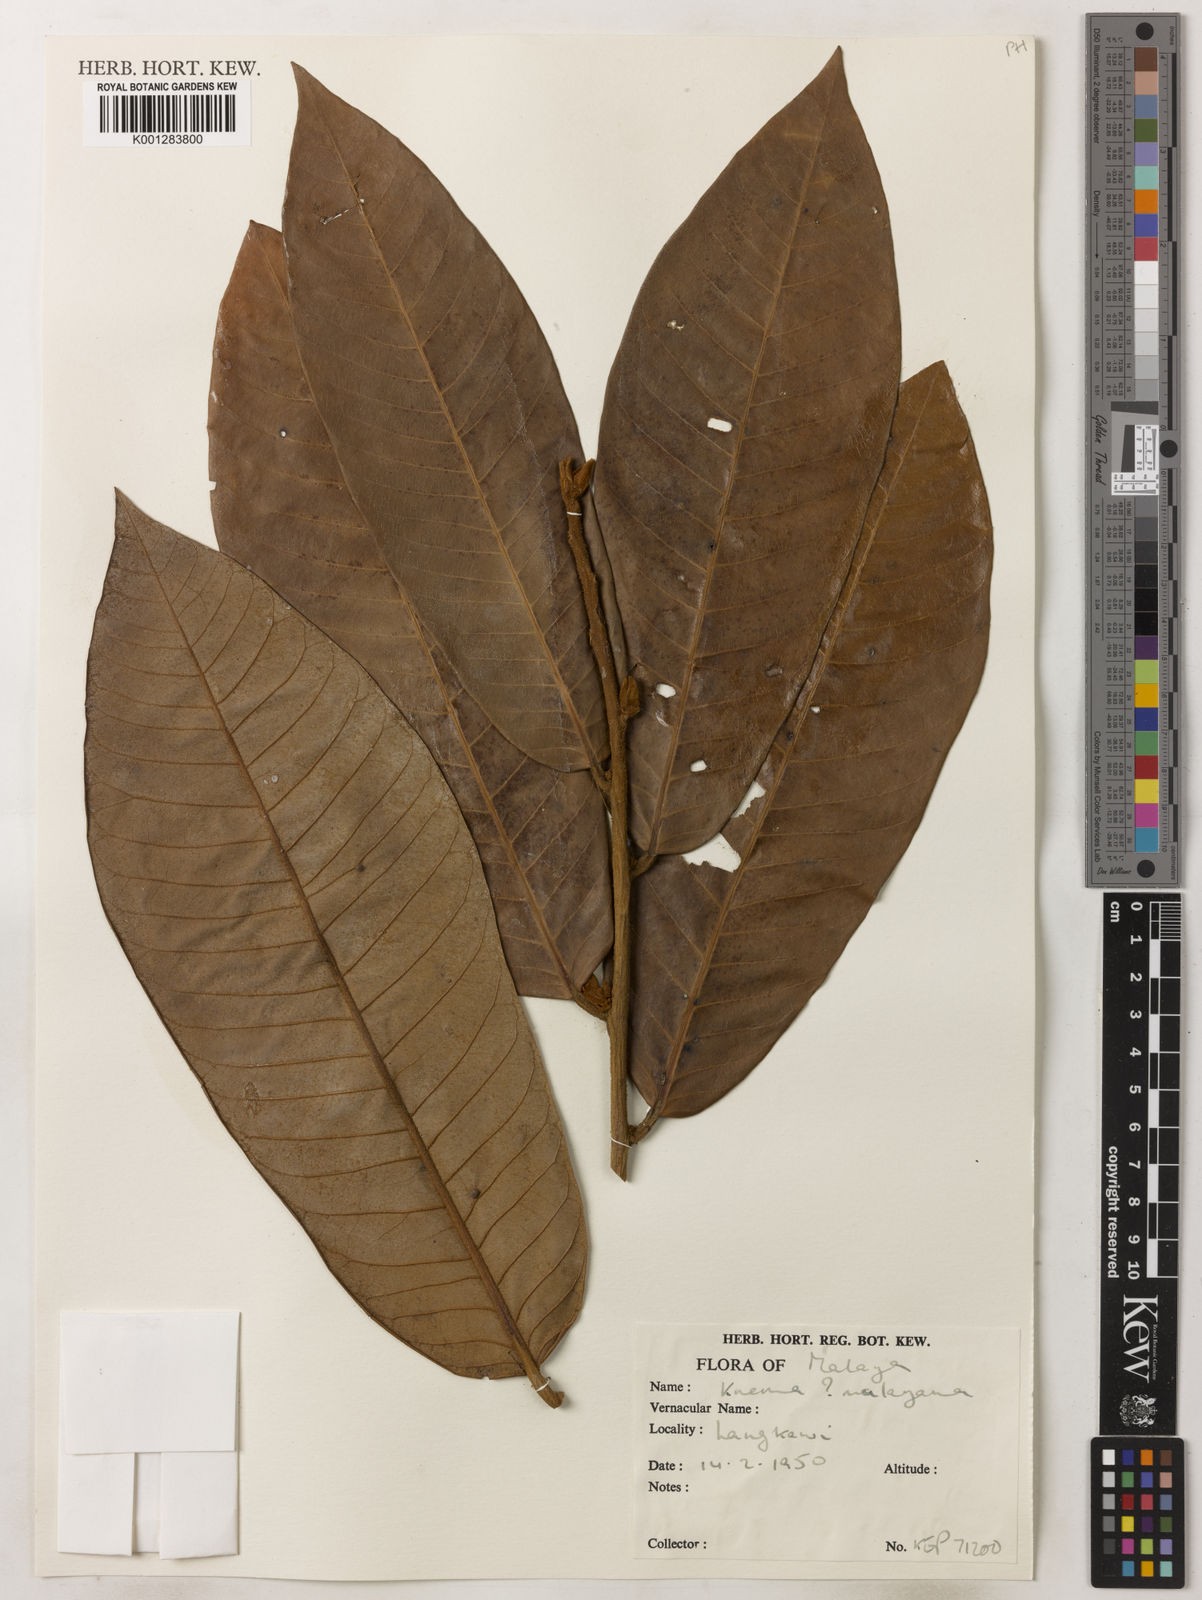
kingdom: Plantae
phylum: Tracheophyta
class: Magnoliopsida
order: Magnoliales
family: Myristicaceae
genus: Knema
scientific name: Knema malayana
